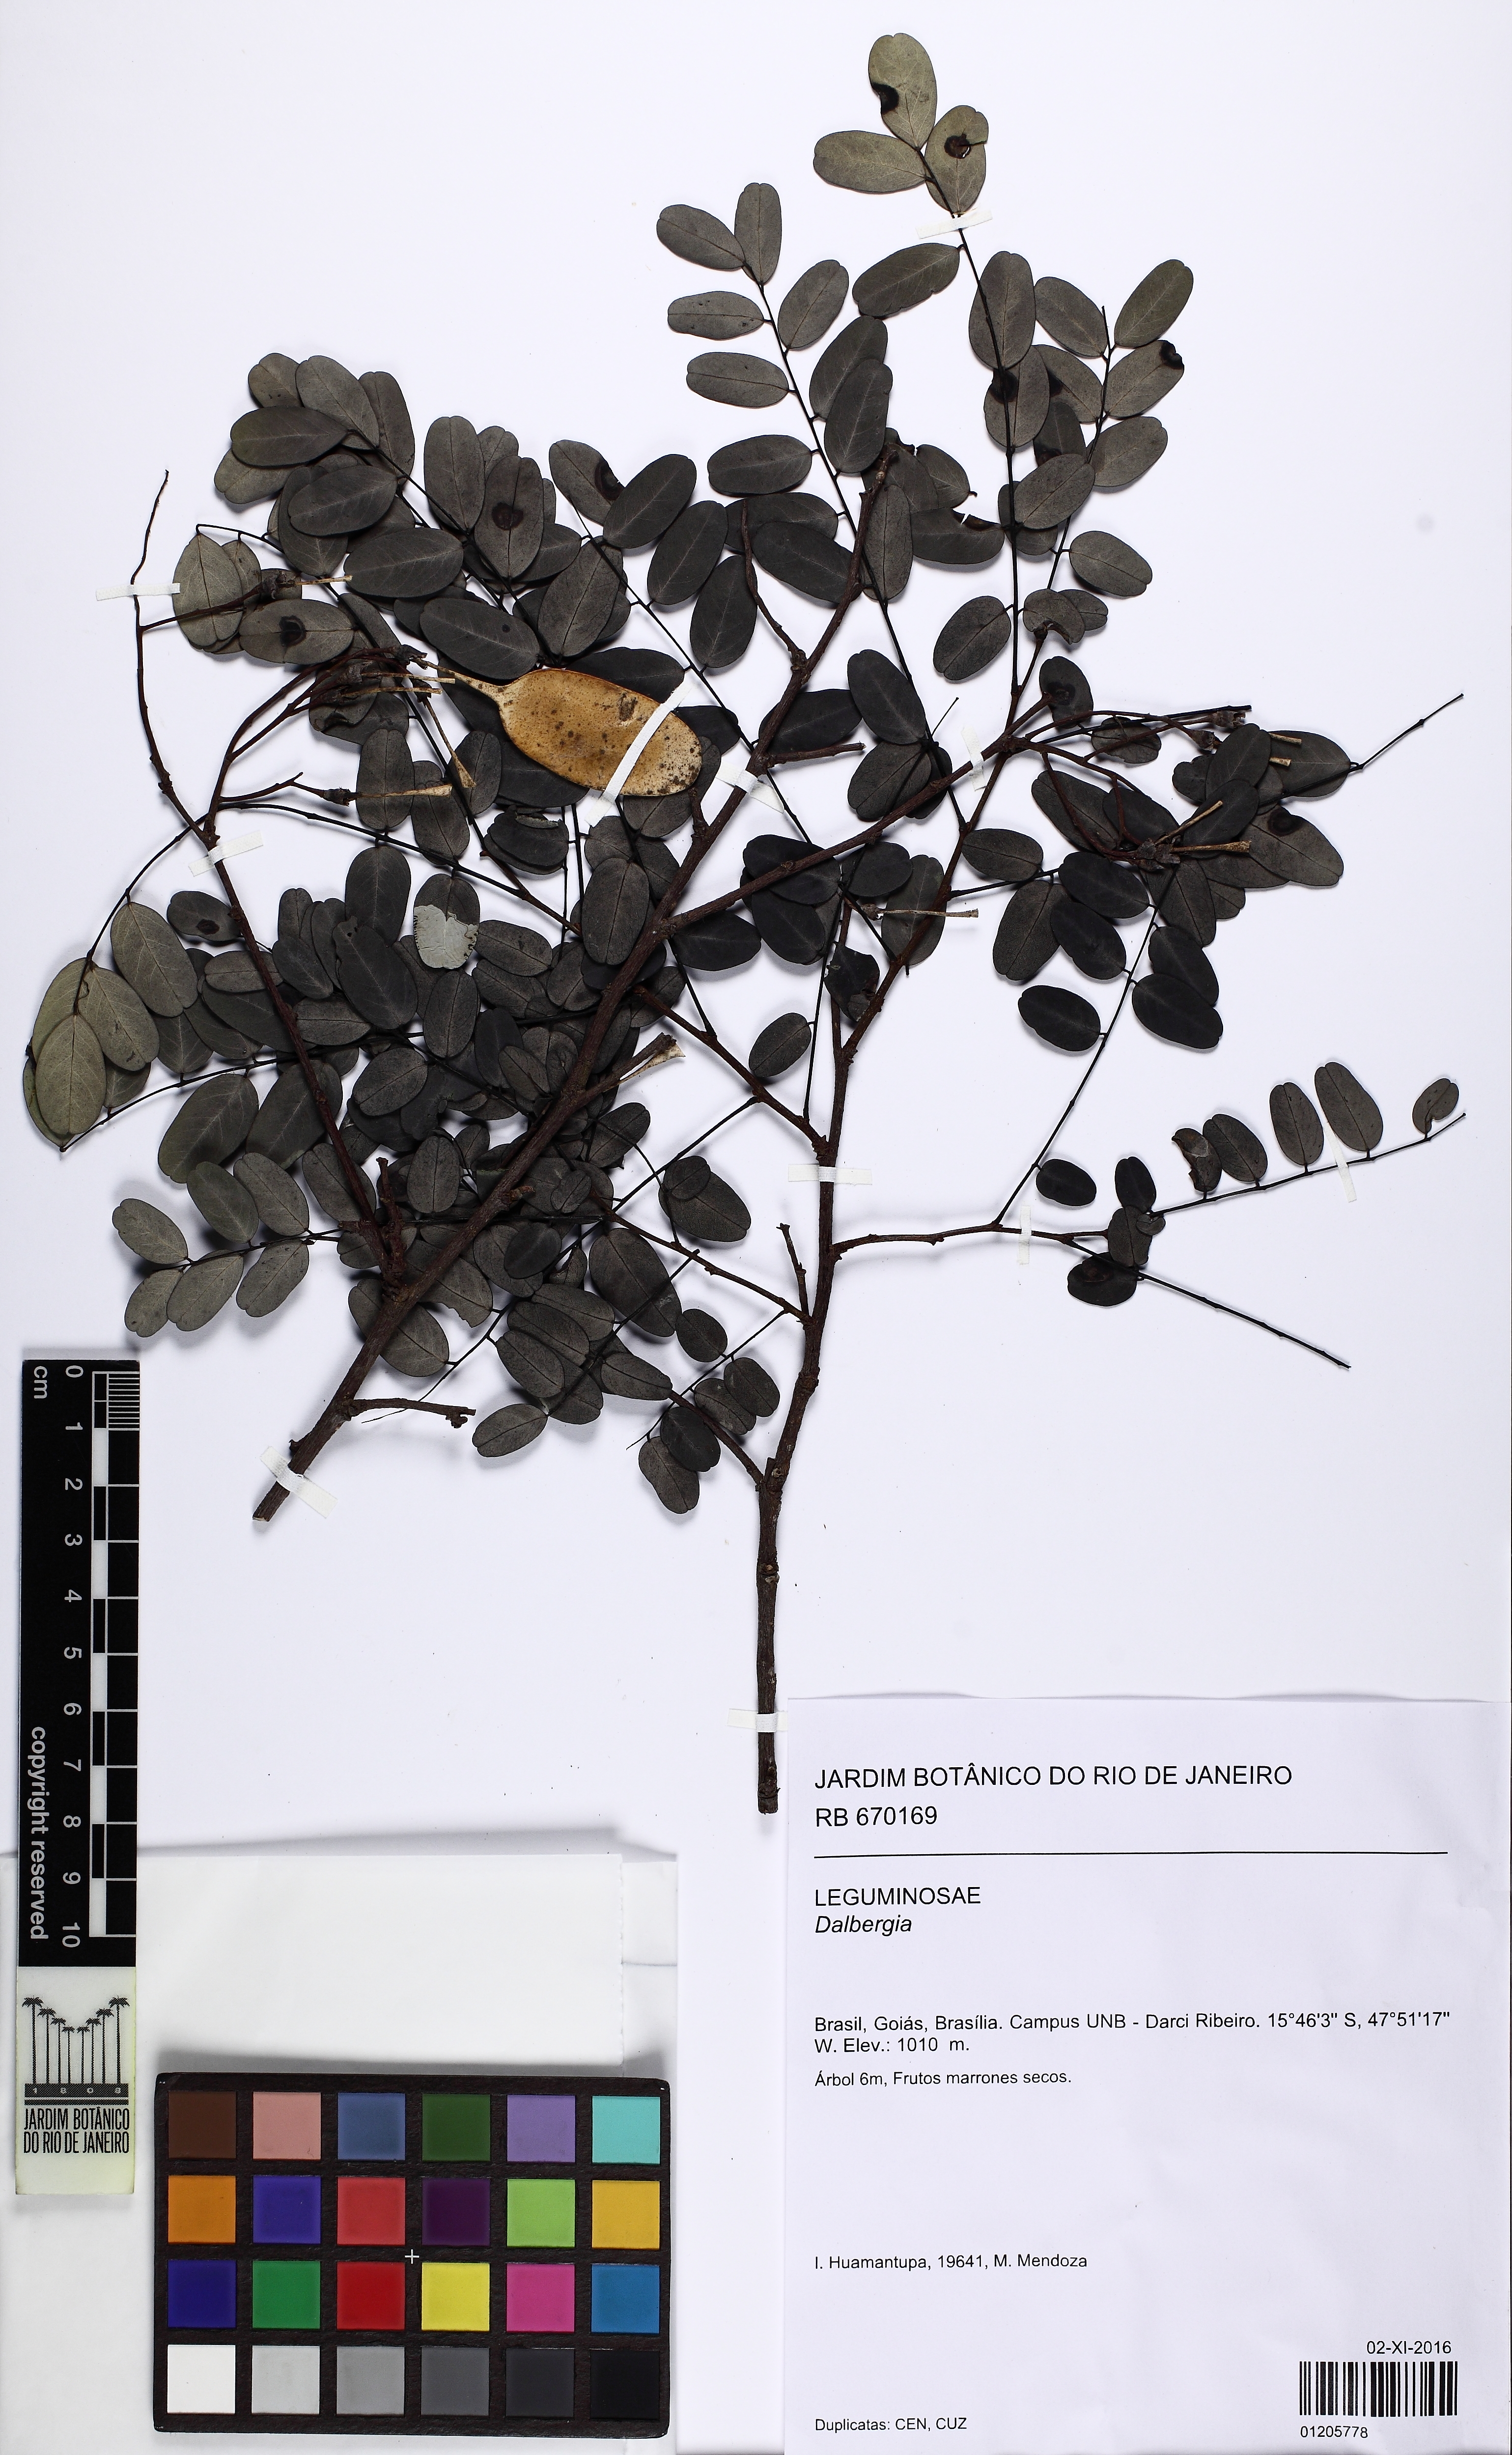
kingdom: Plantae
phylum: Tracheophyta
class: Magnoliopsida
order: Fabales
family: Fabaceae
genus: Dalbergia
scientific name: Dalbergia
